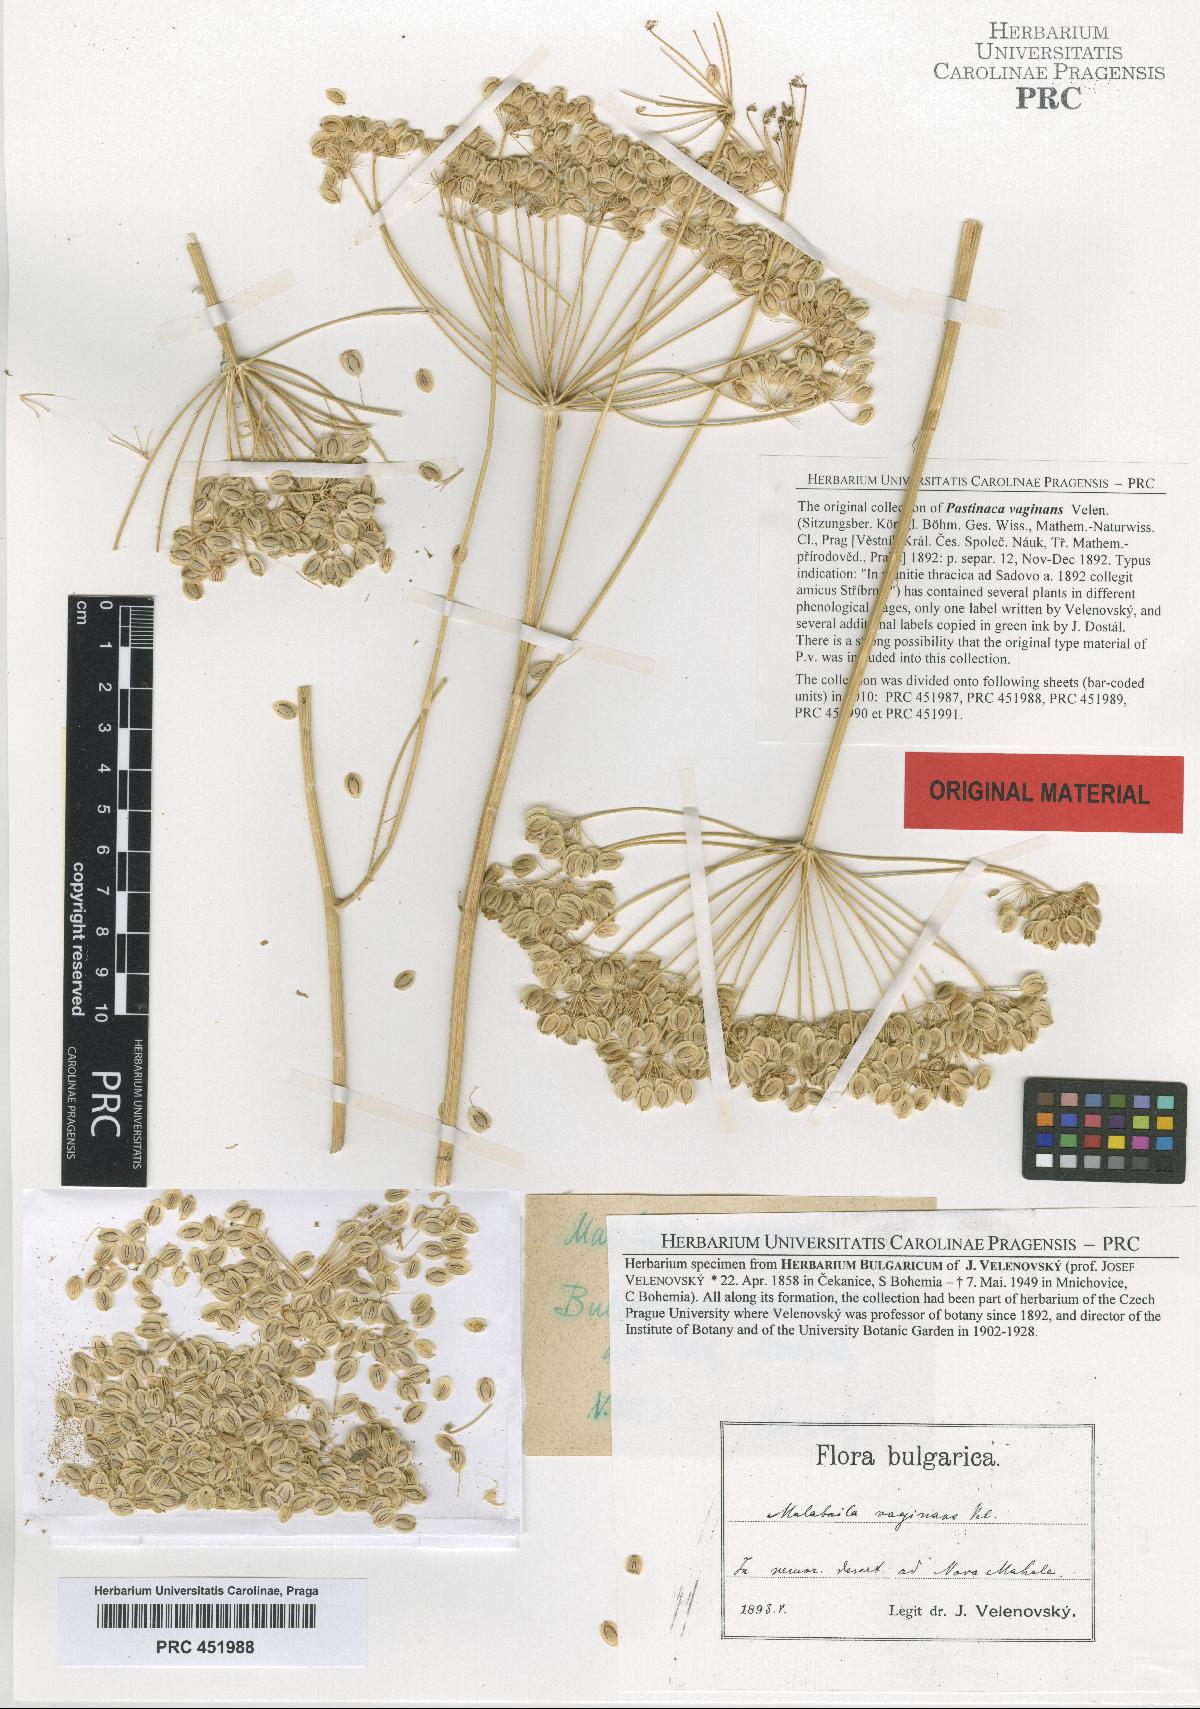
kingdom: Plantae
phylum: Tracheophyta
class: Magnoliopsida
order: Apiales
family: Apiaceae
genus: Pastinaca
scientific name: Pastinaca clausii
